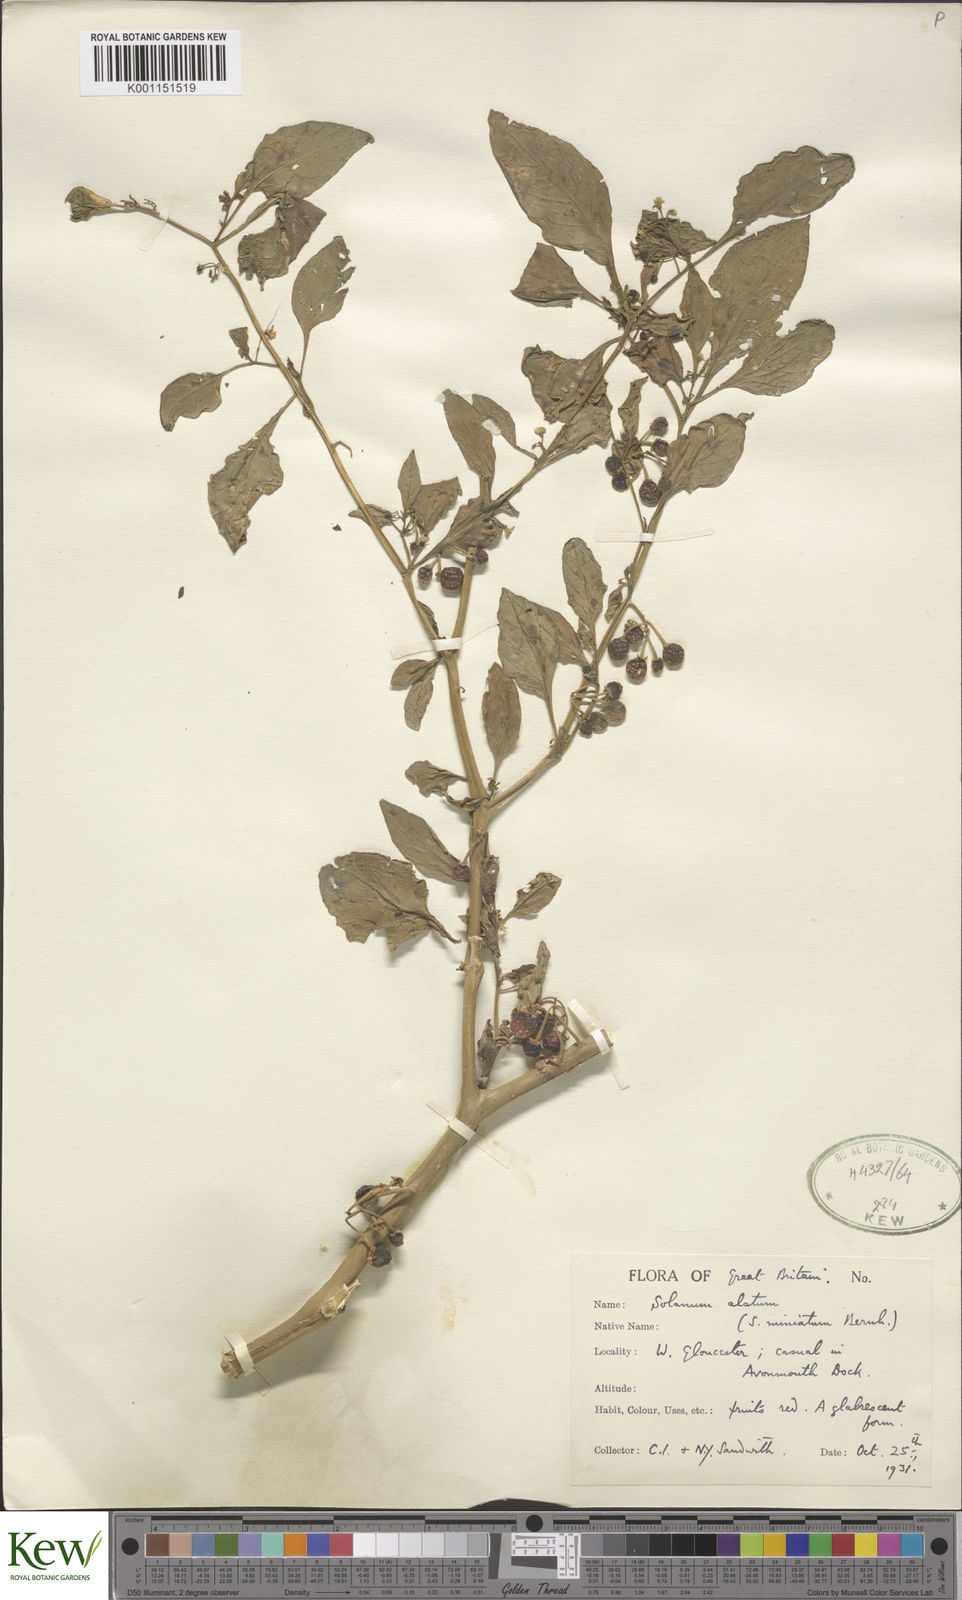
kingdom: Plantae
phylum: Tracheophyta
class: Magnoliopsida
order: Solanales
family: Solanaceae
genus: Solanum
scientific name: Solanum alatum
